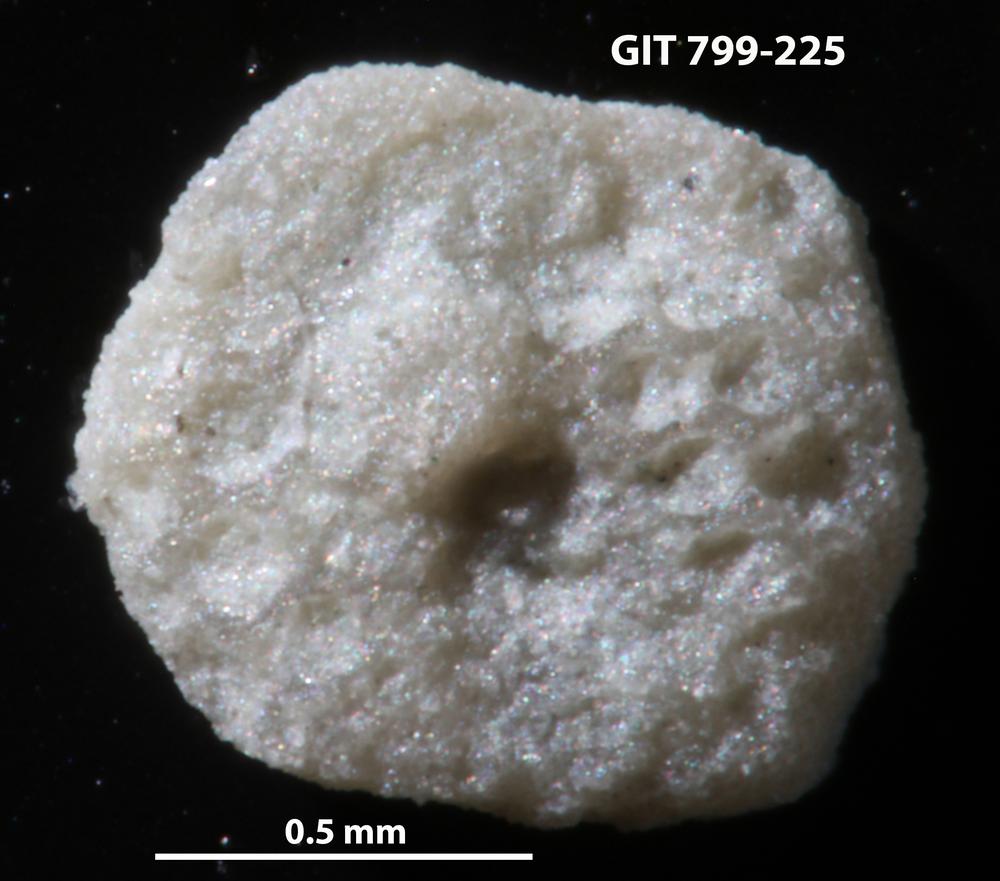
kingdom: Animalia
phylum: Echinodermata
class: Echinoidea
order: Bothriocidaroida
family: Bothriocidaridae
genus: Neobothriocidaris
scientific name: Neobothriocidaris
